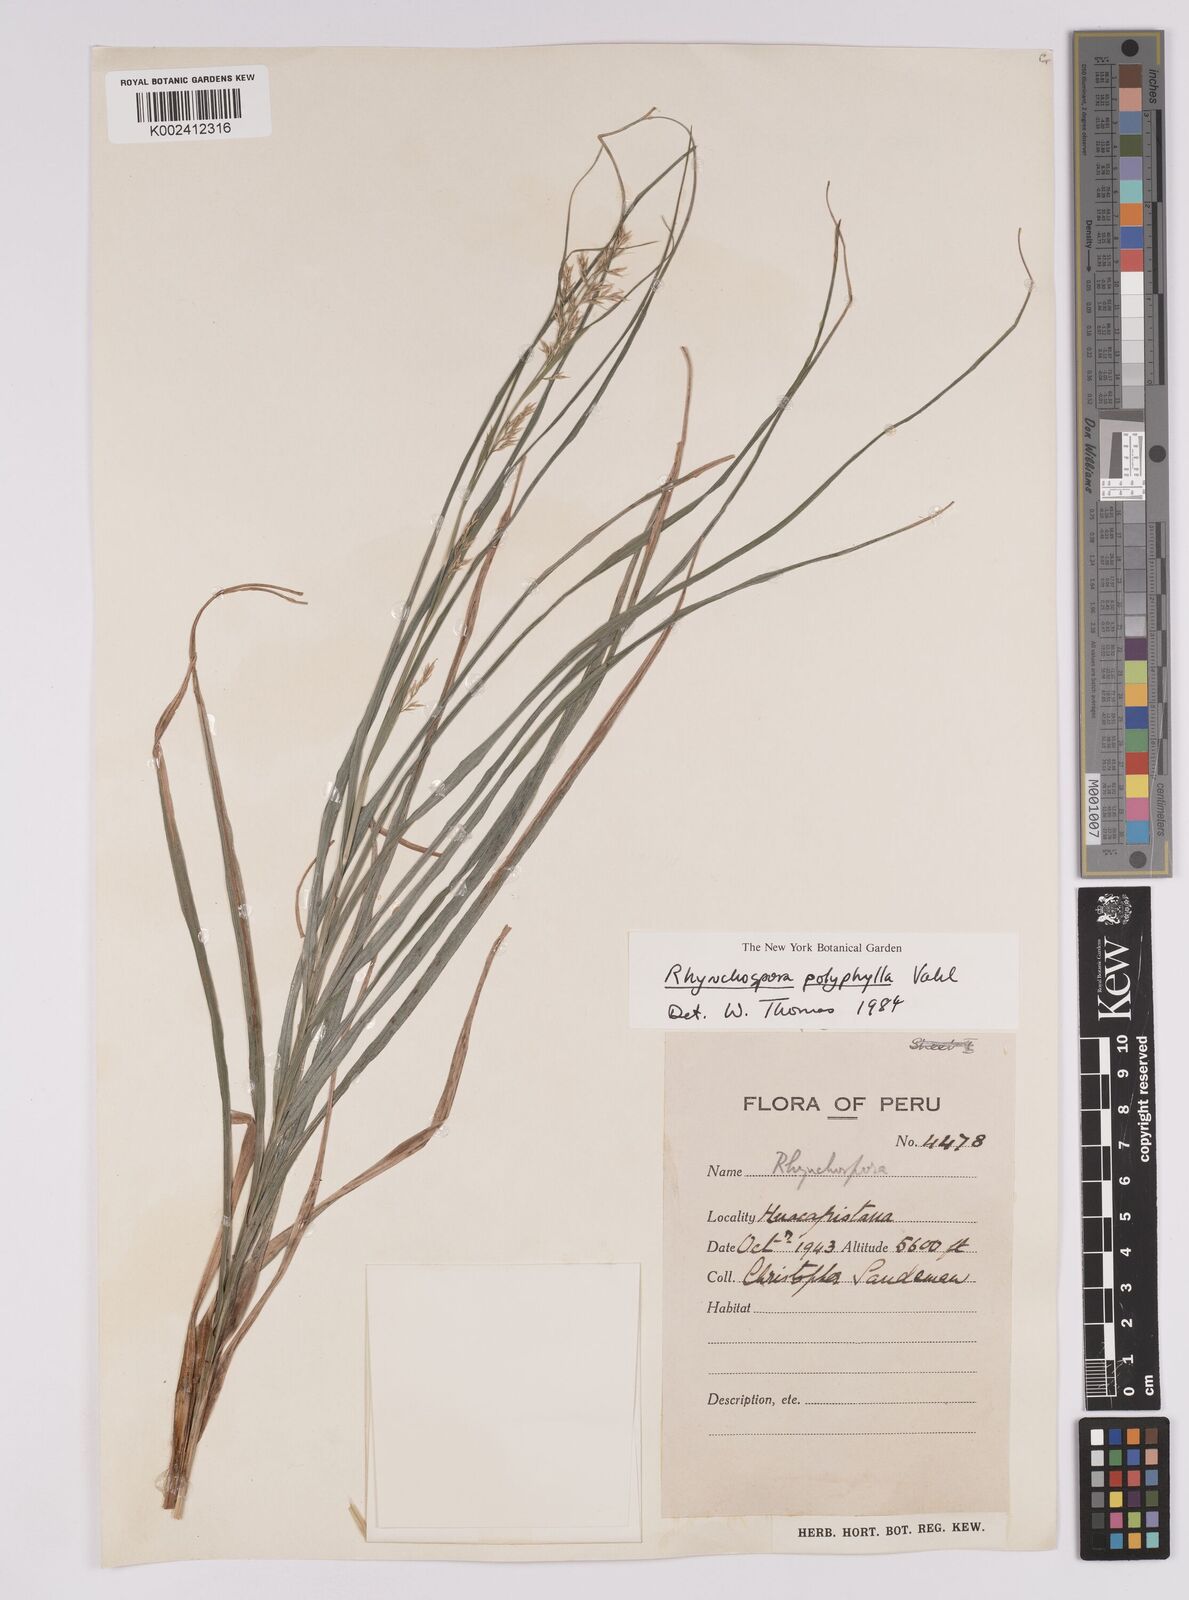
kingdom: Plantae
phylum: Tracheophyta
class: Liliopsida
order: Poales
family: Cyperaceae
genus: Rhynchospora
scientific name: Rhynchospora polyphylla
